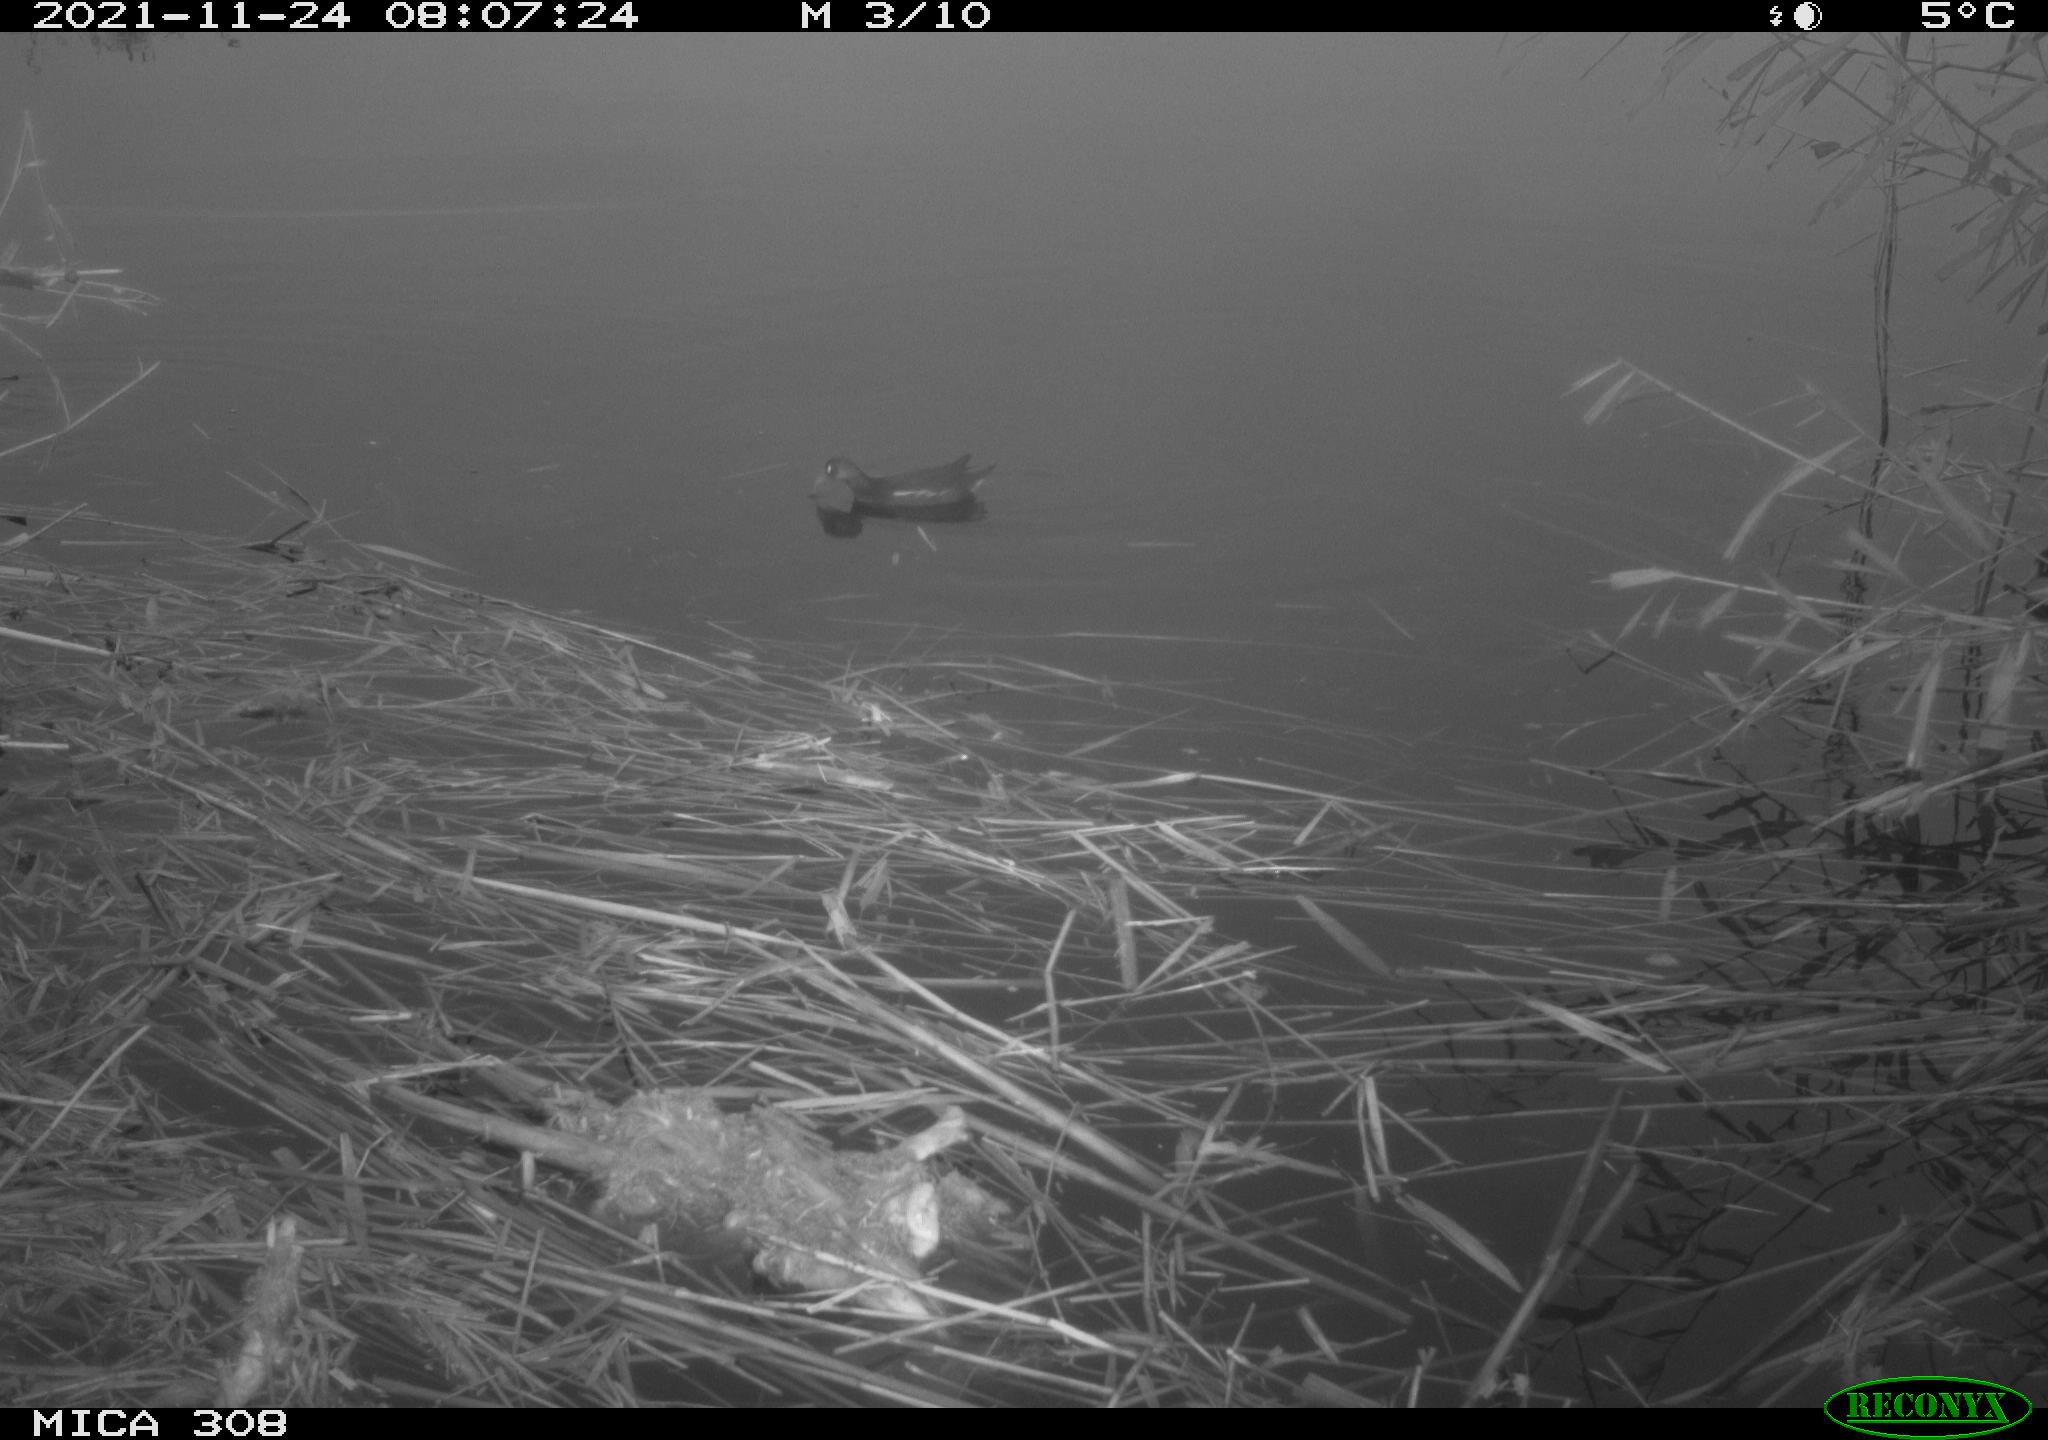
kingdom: Animalia
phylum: Chordata
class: Aves
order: Gruiformes
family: Rallidae
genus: Gallinula
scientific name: Gallinula chloropus
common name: Common moorhen
